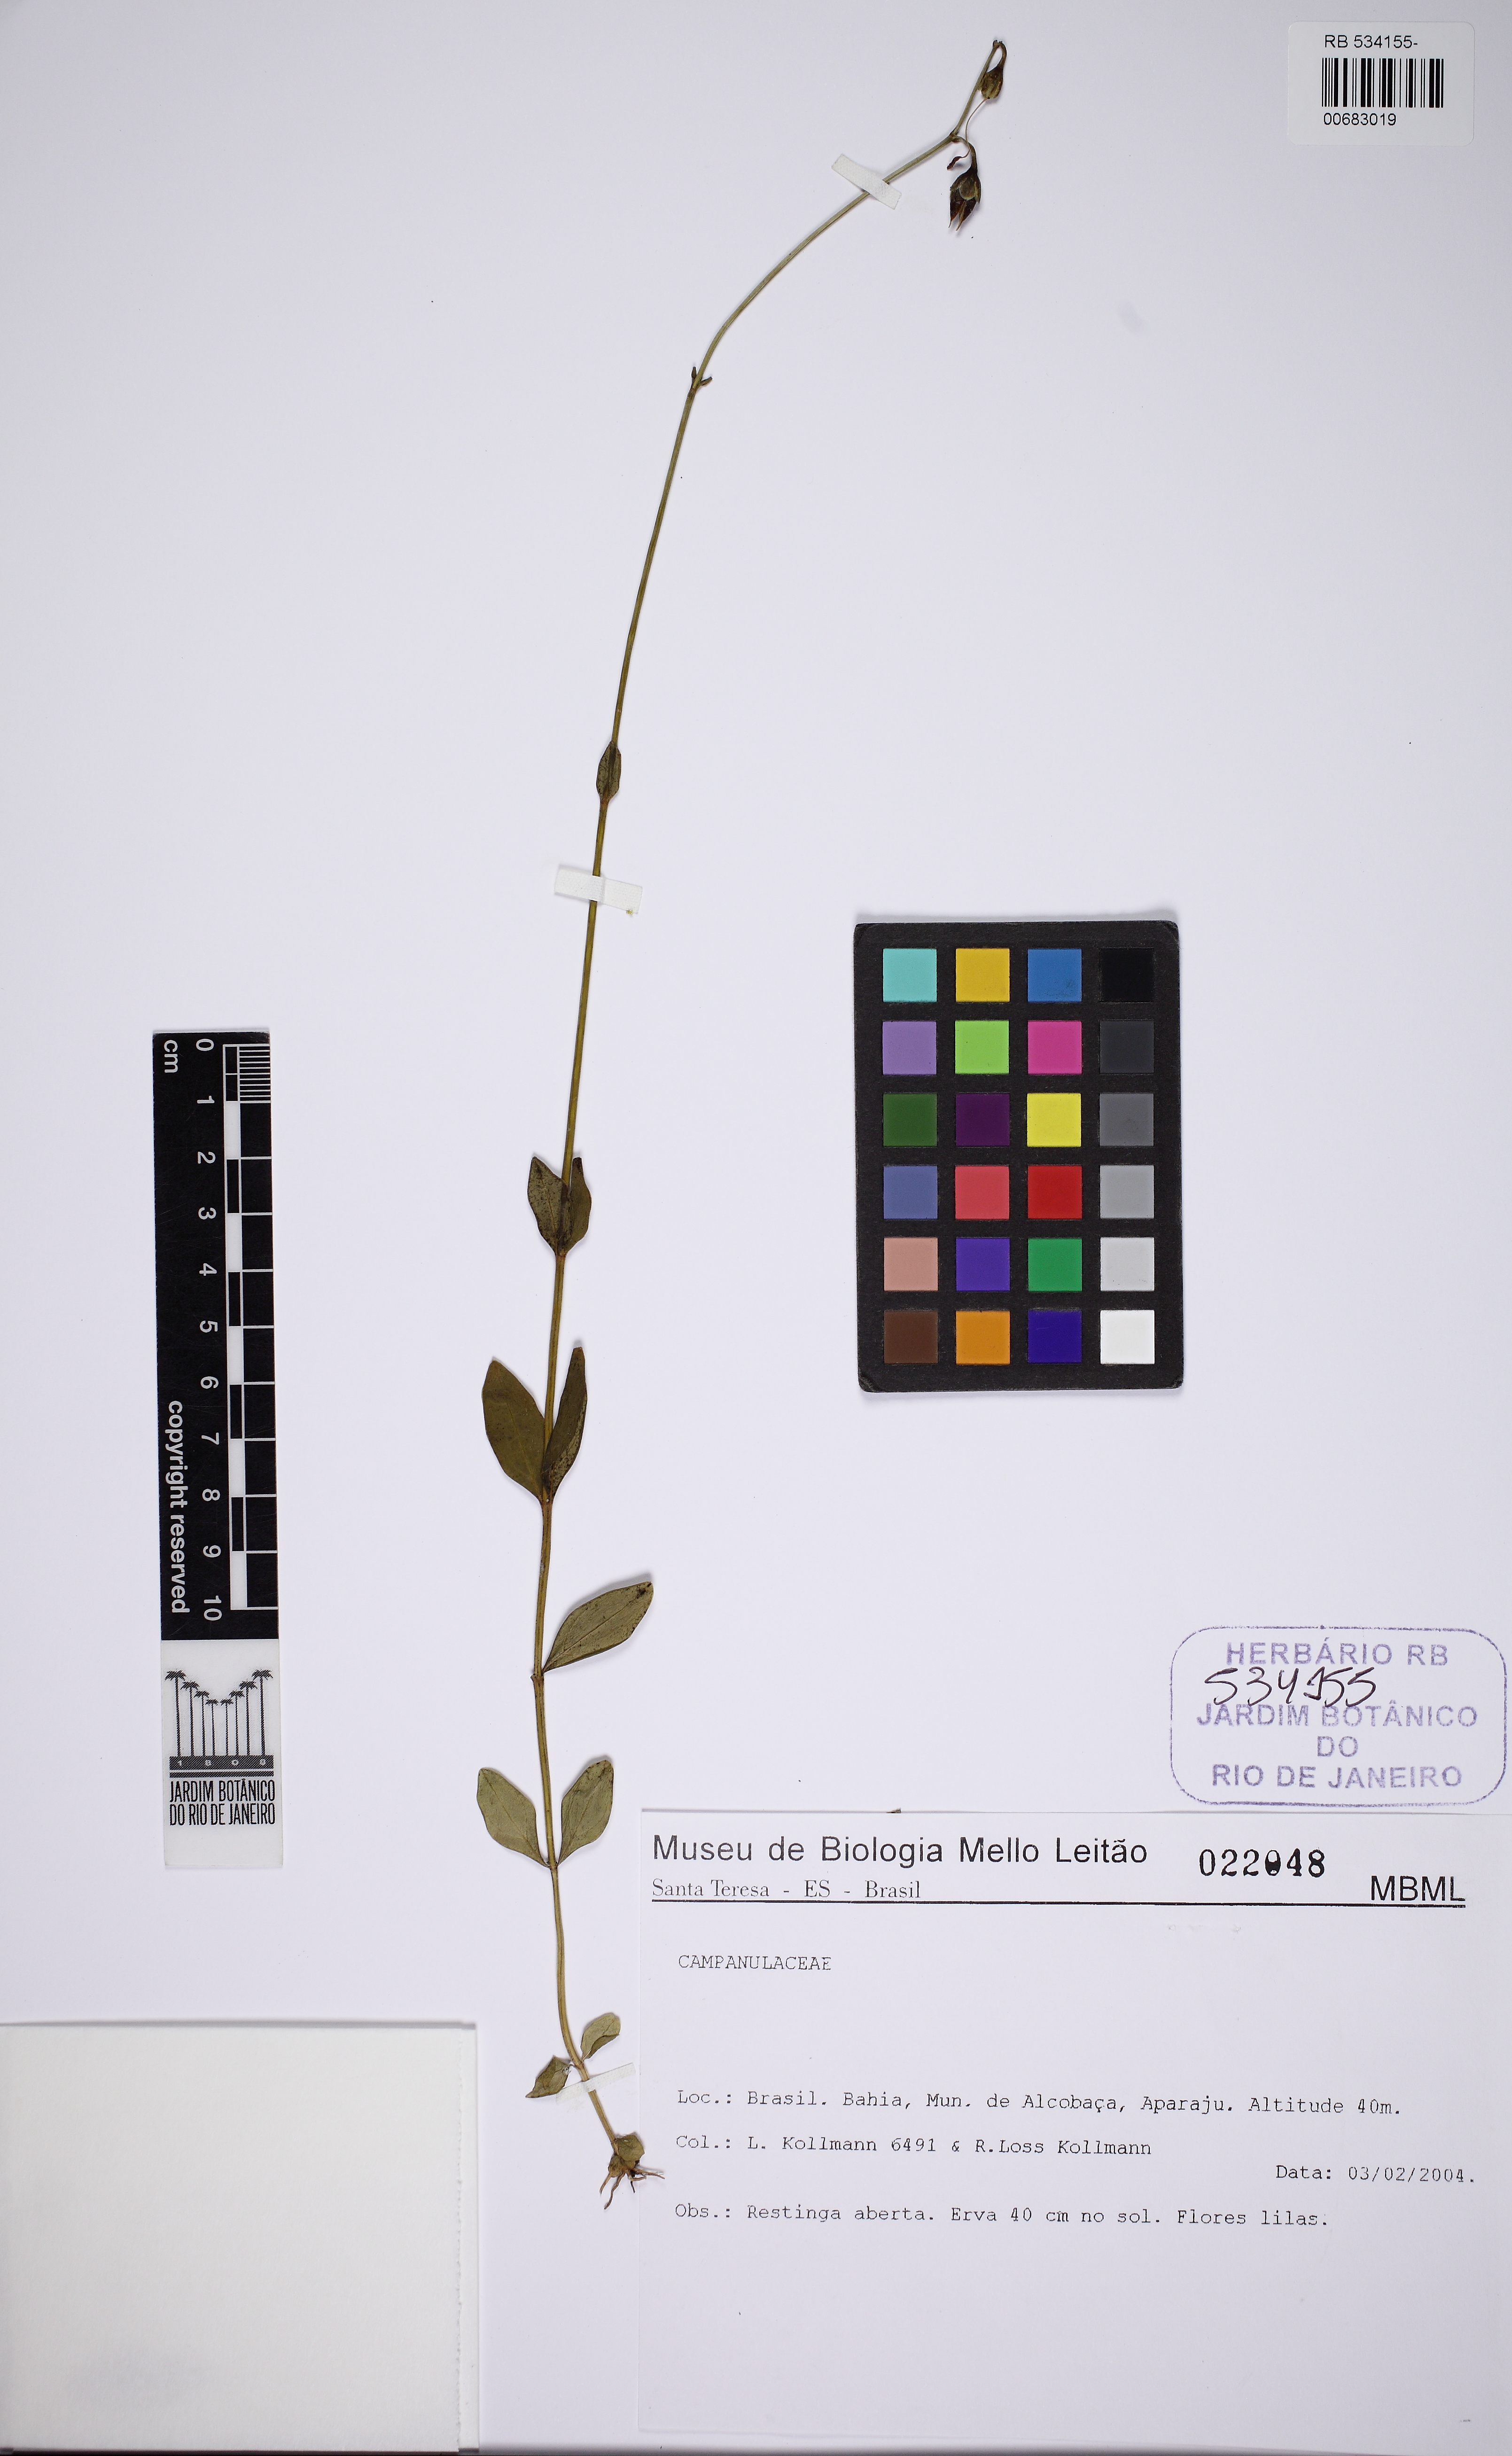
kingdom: Plantae
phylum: Tracheophyta
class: Magnoliopsida
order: Gentianales
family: Gentianaceae
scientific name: Gentianaceae
